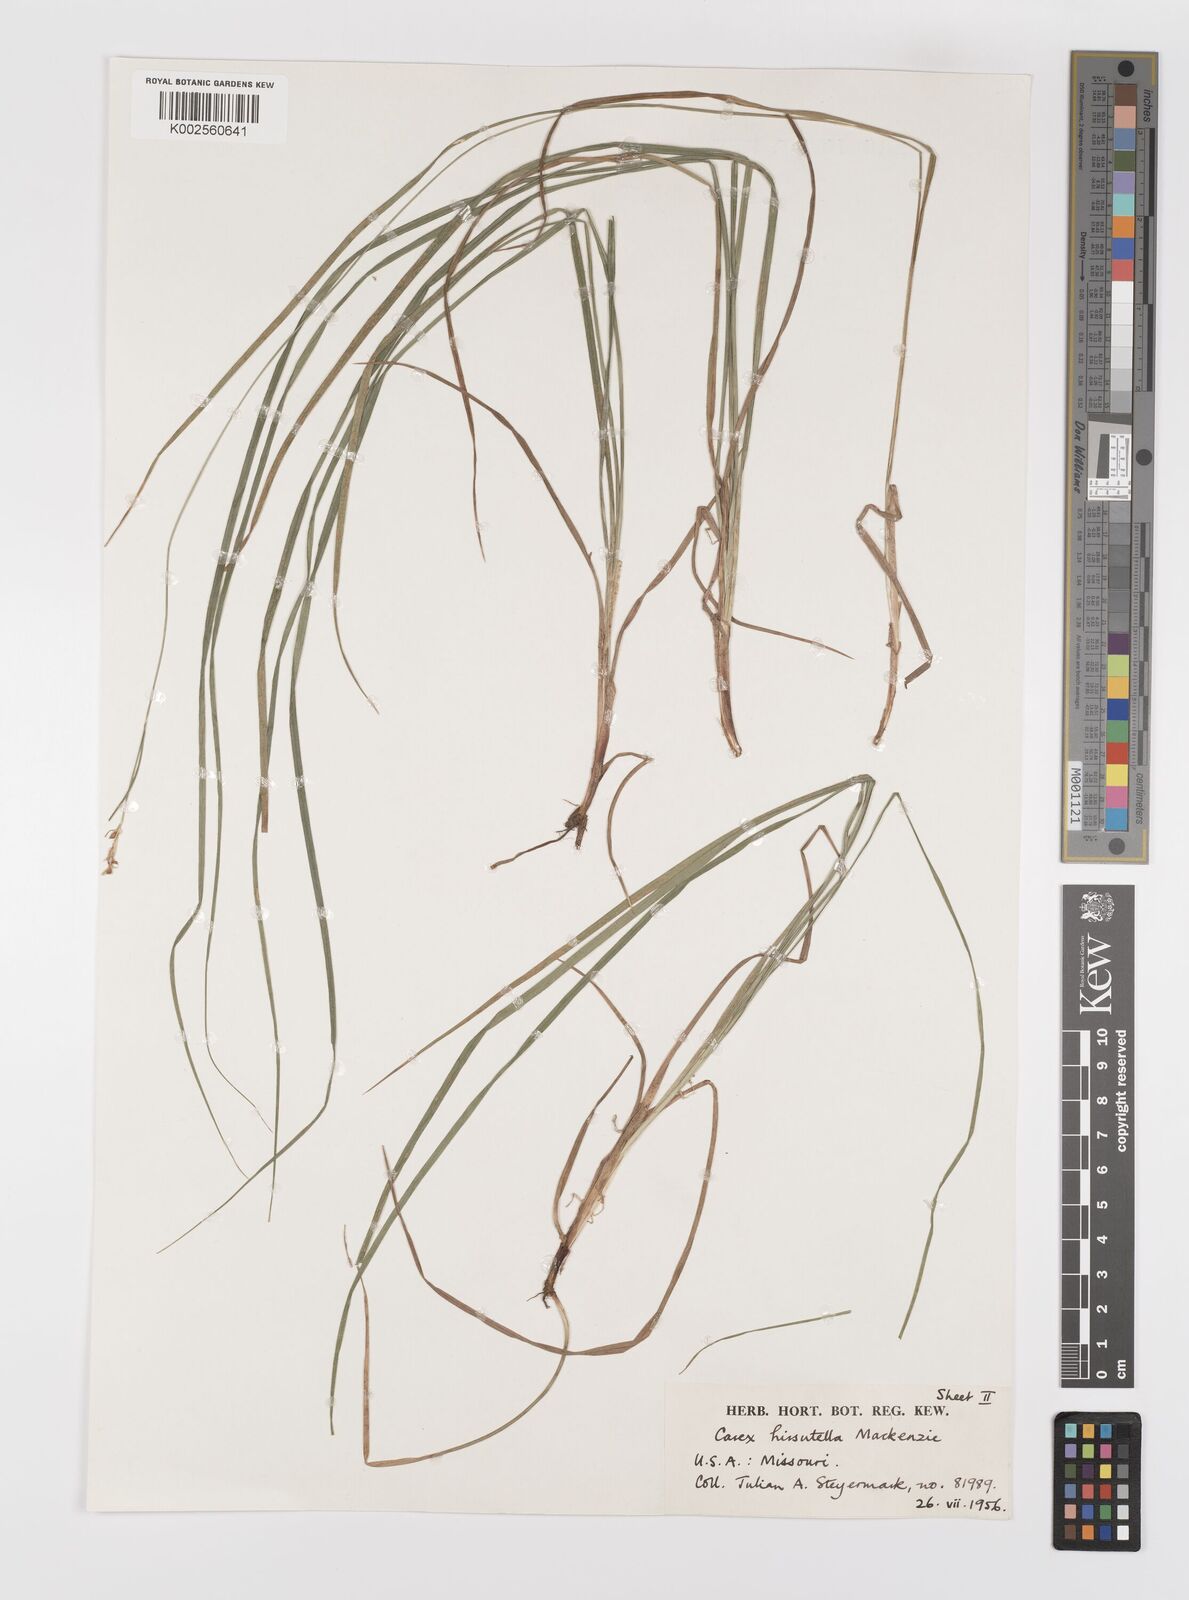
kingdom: Plantae
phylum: Tracheophyta
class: Liliopsida
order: Poales
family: Cyperaceae
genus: Carex
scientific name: Carex hirsutella
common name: Fuzzy wuzzy sedge
